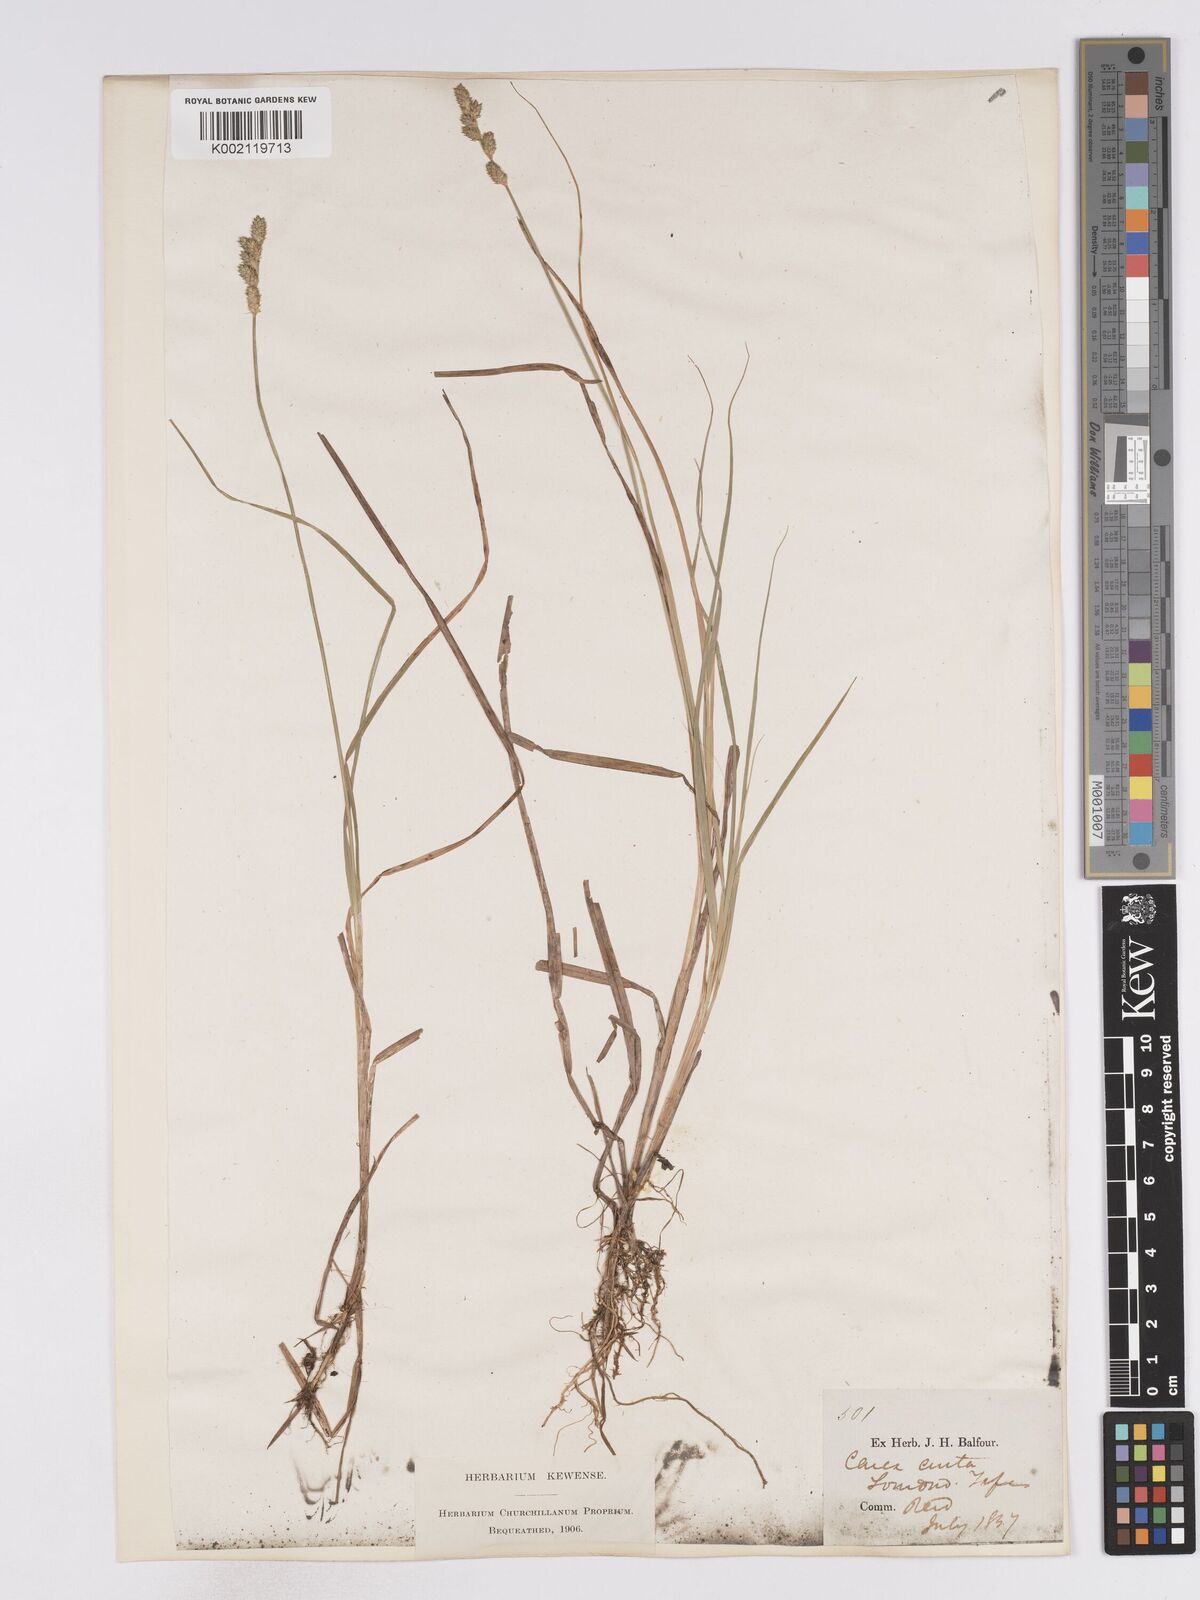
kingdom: Plantae
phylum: Tracheophyta
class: Liliopsida
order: Poales
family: Cyperaceae
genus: Carex
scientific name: Carex curta
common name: White sedge
